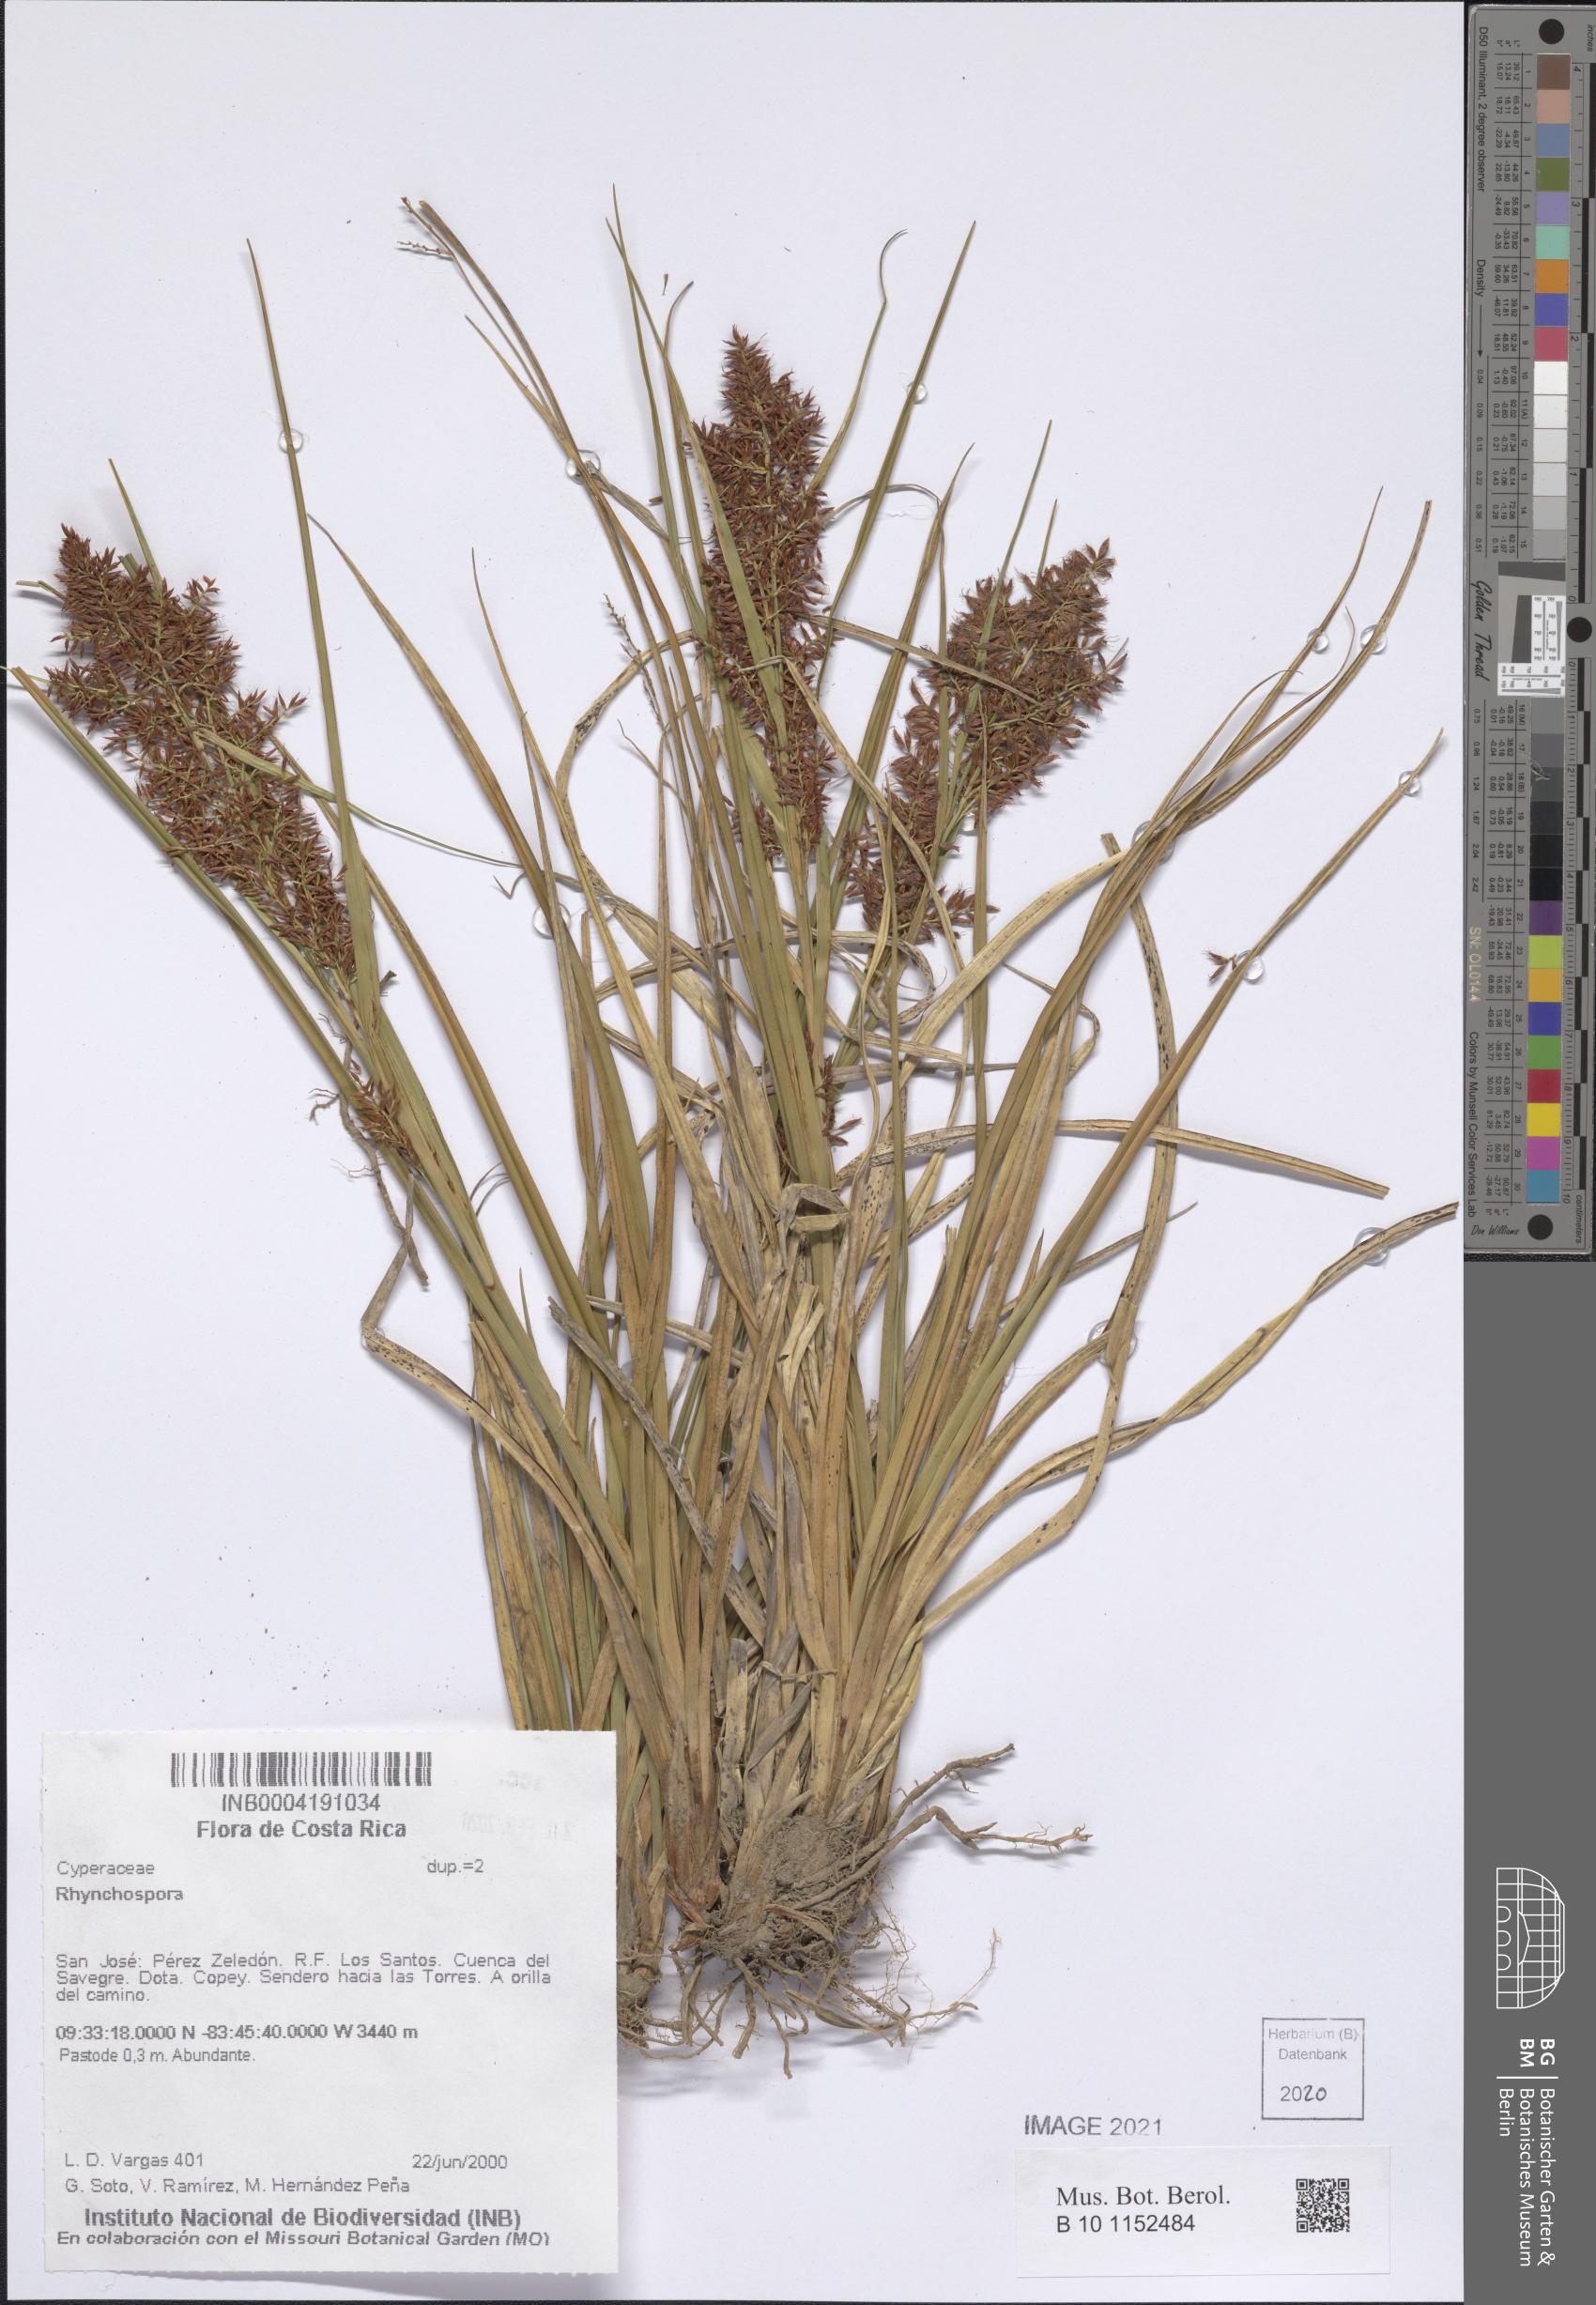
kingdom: Plantae
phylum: Tracheophyta
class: Liliopsida
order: Poales
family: Cyperaceae
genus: Rhynchospora
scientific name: Rhynchospora
